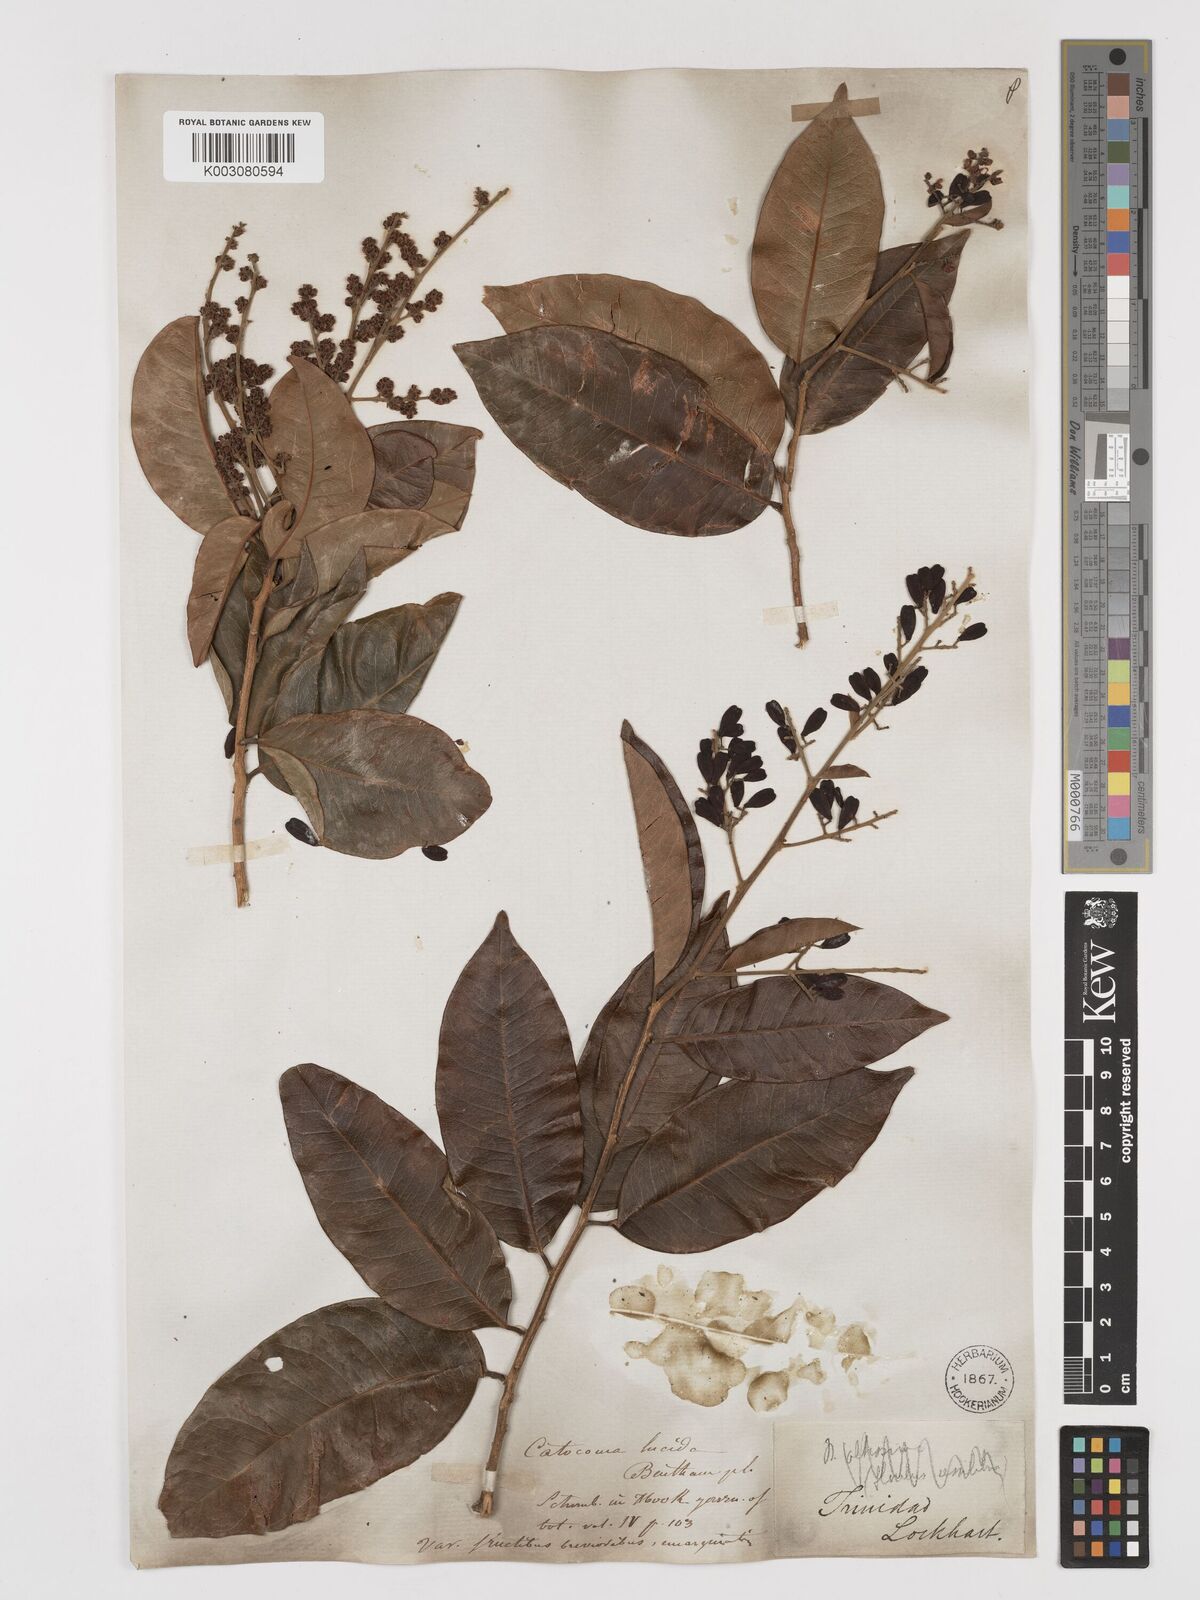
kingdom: Plantae
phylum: Tracheophyta
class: Magnoliopsida
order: Fabales
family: Polygalaceae
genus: Bredemeyera
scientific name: Bredemeyera lucida
